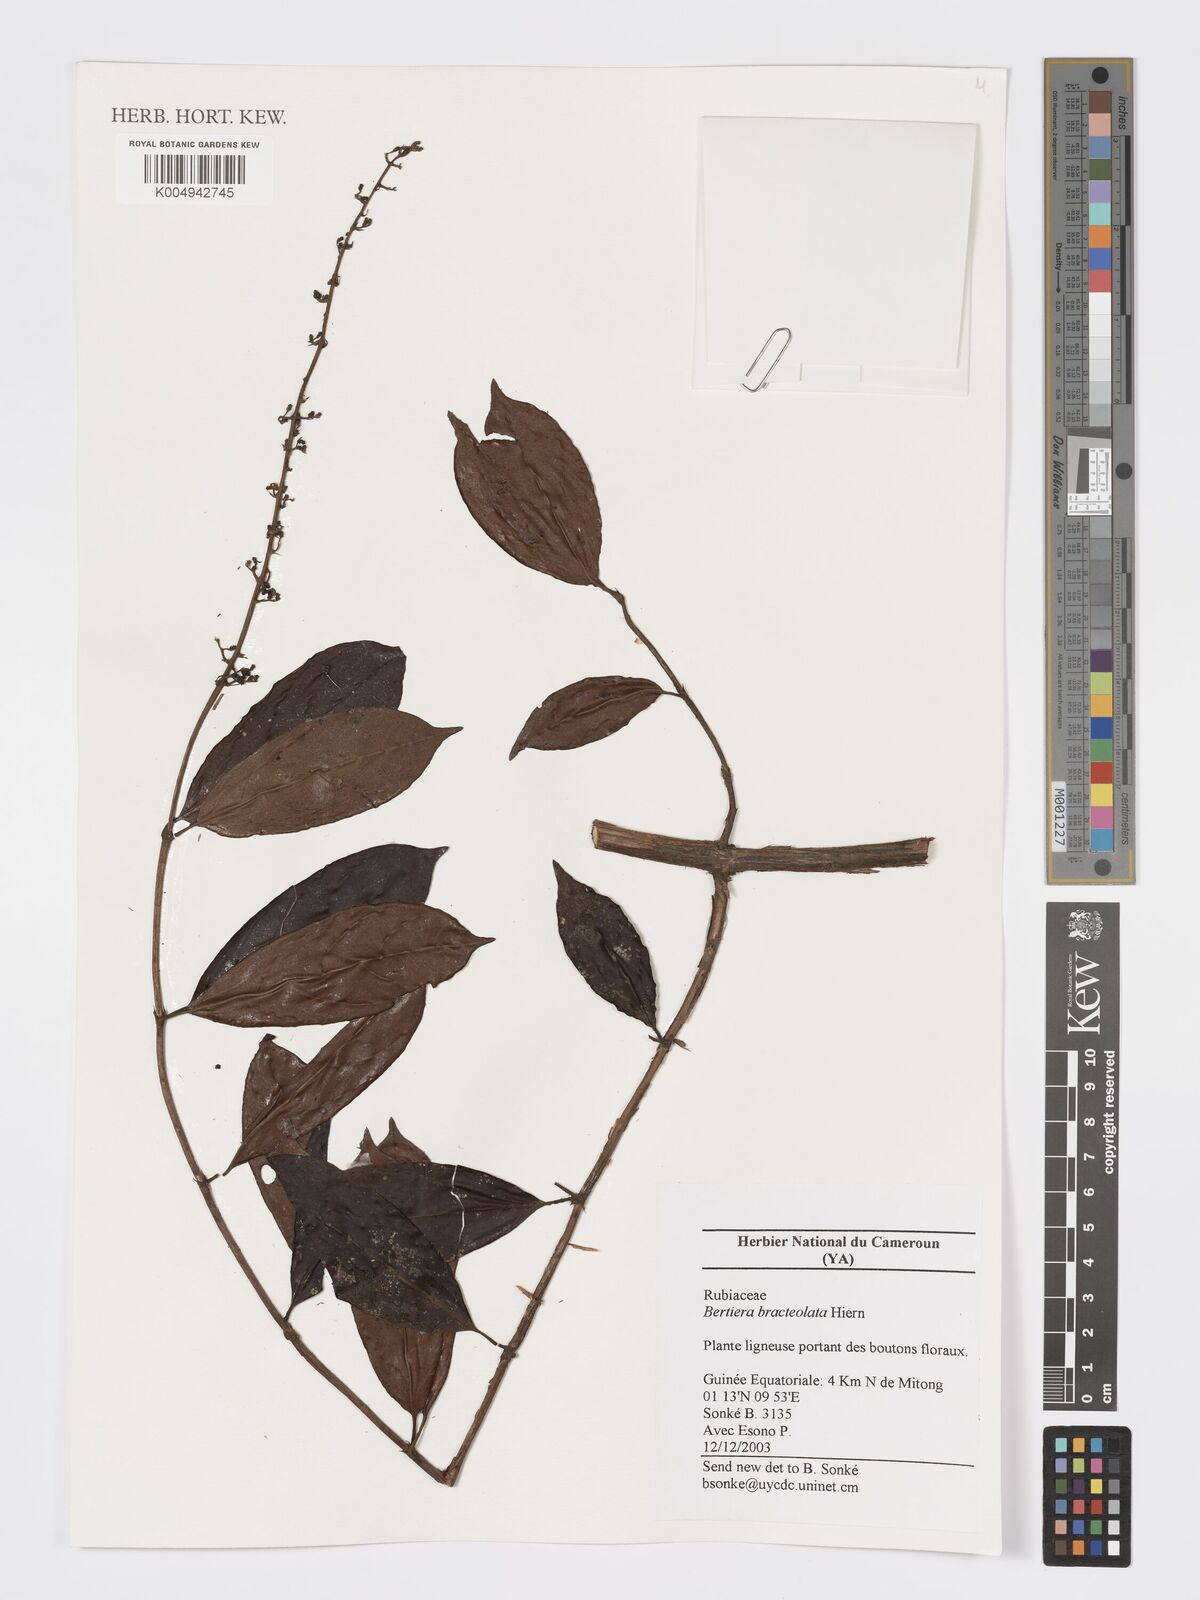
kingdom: Plantae
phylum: Tracheophyta
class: Magnoliopsida
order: Gentianales
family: Rubiaceae
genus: Bertiera
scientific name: Bertiera bracteolata
